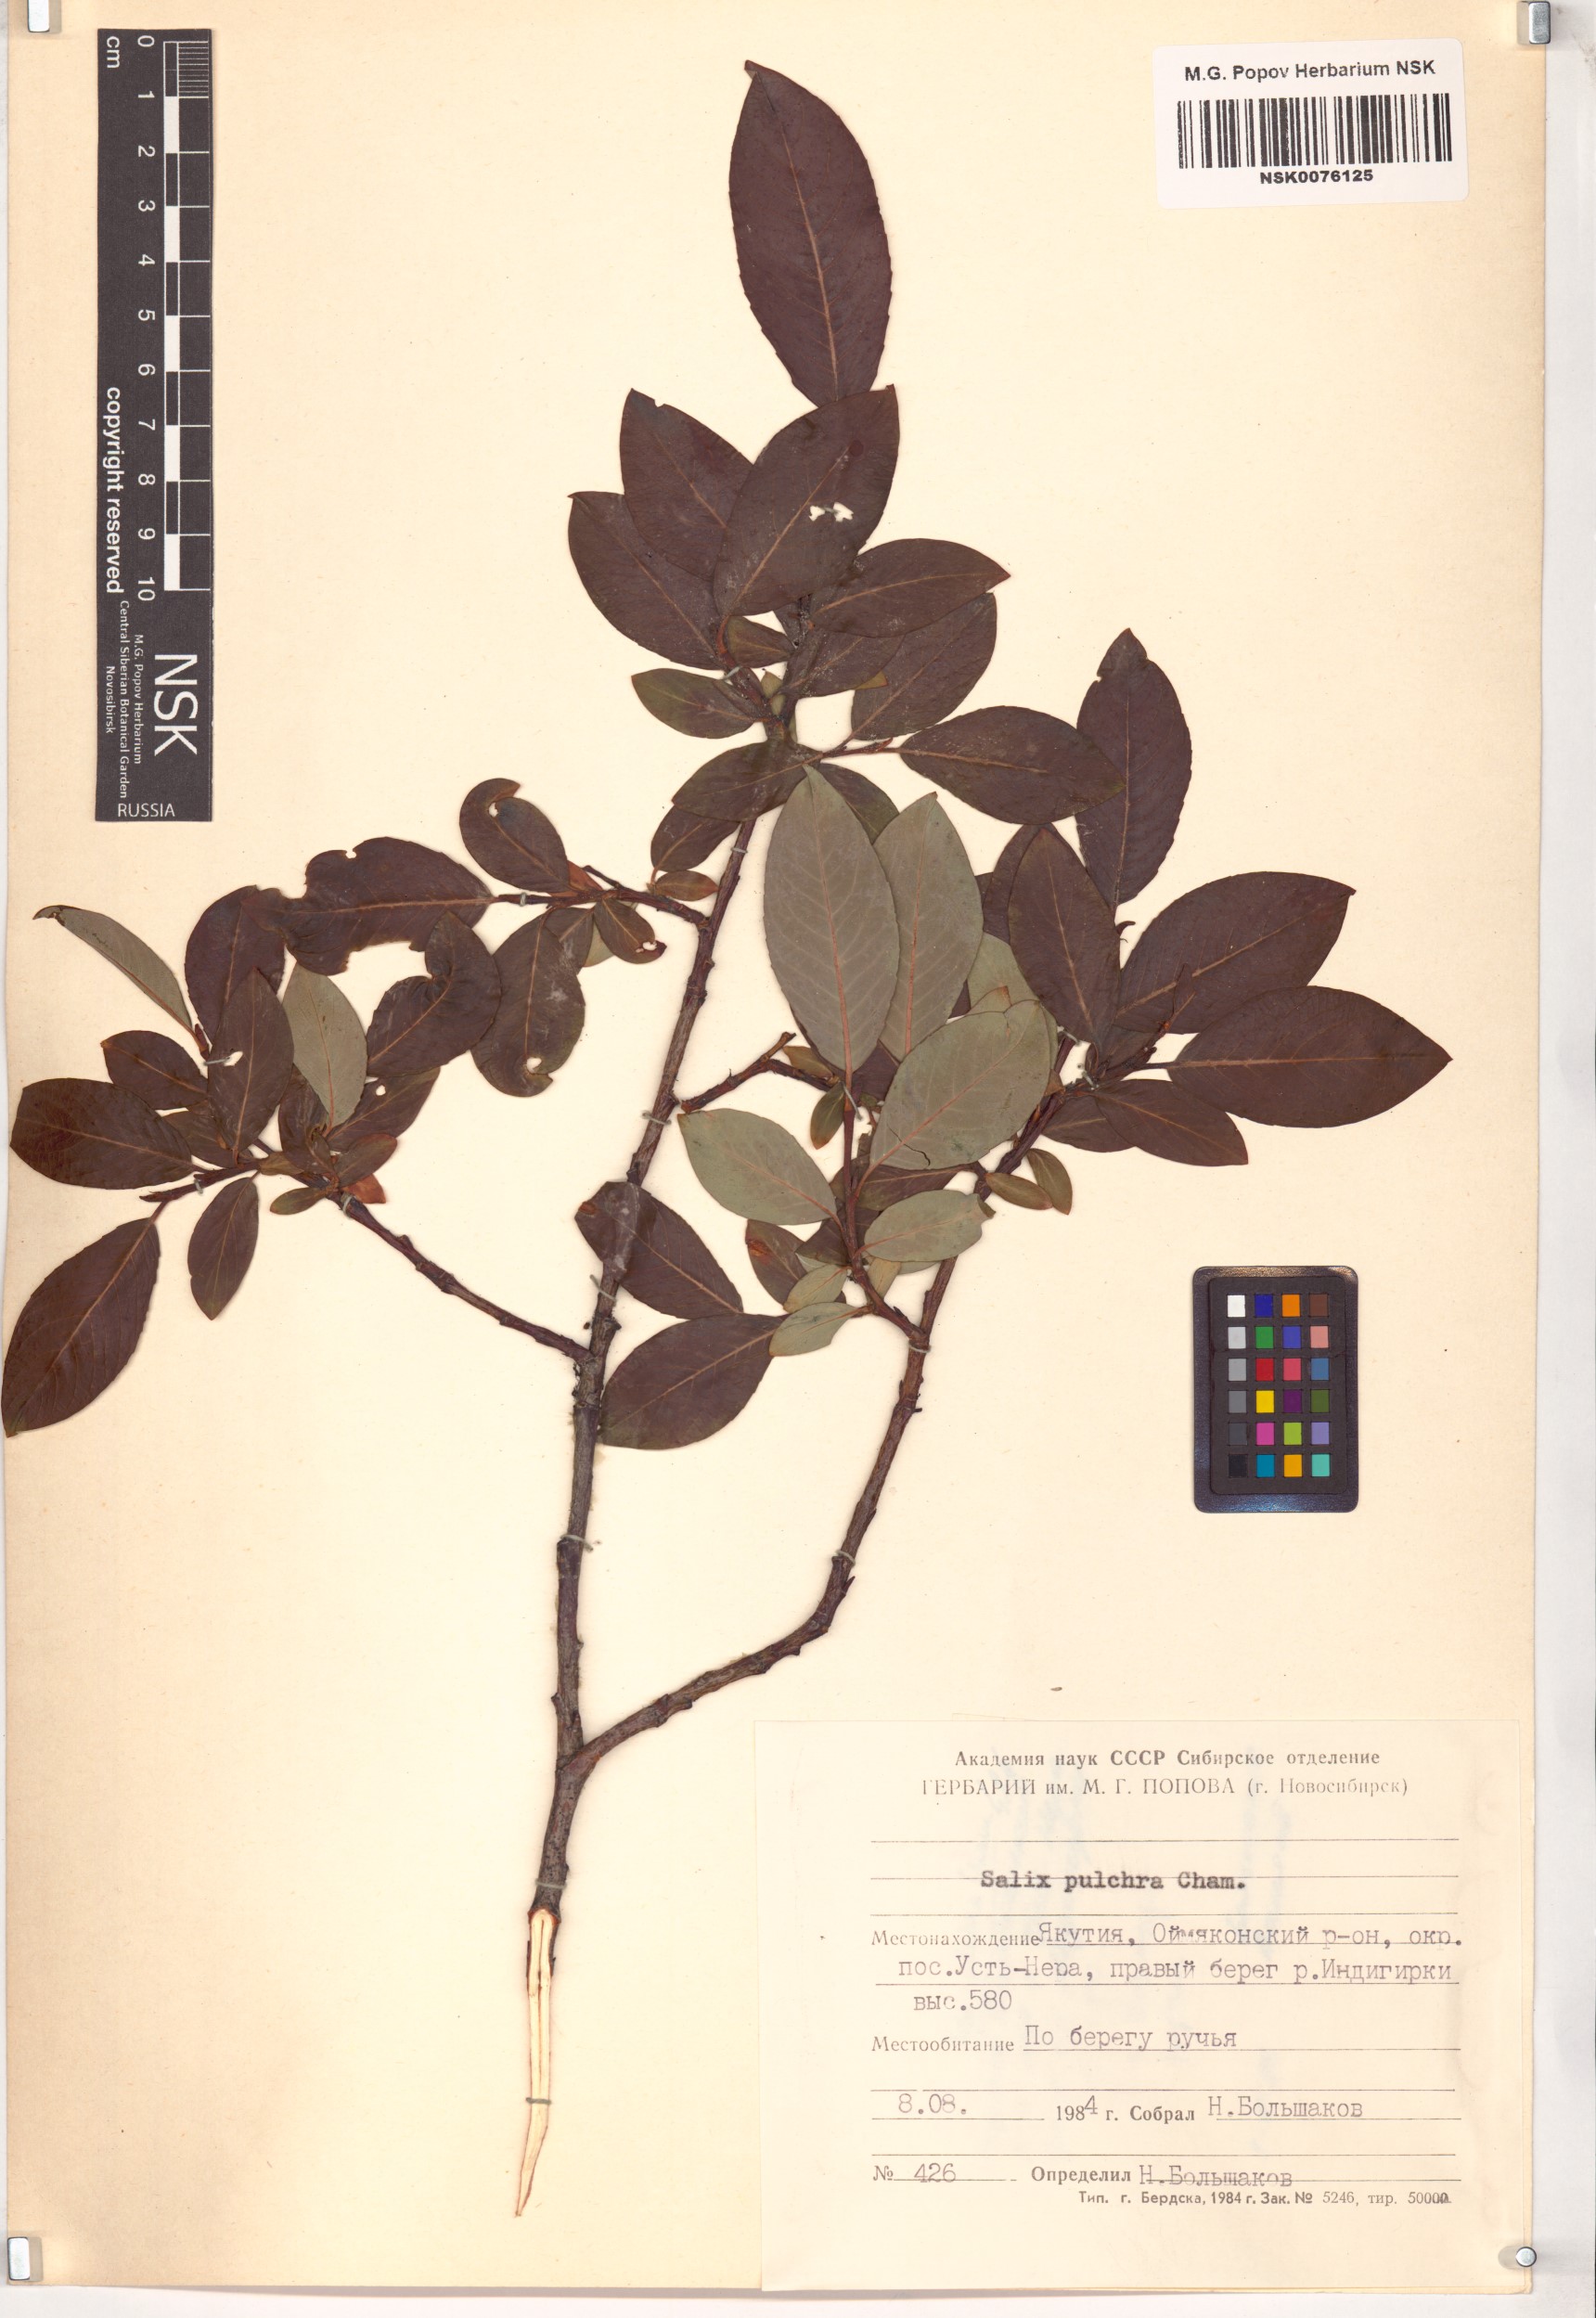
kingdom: Plantae
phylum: Tracheophyta
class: Magnoliopsida
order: Malpighiales
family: Salicaceae
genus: Salix
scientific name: Salix pulchra
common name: Diamond-leaved willow
